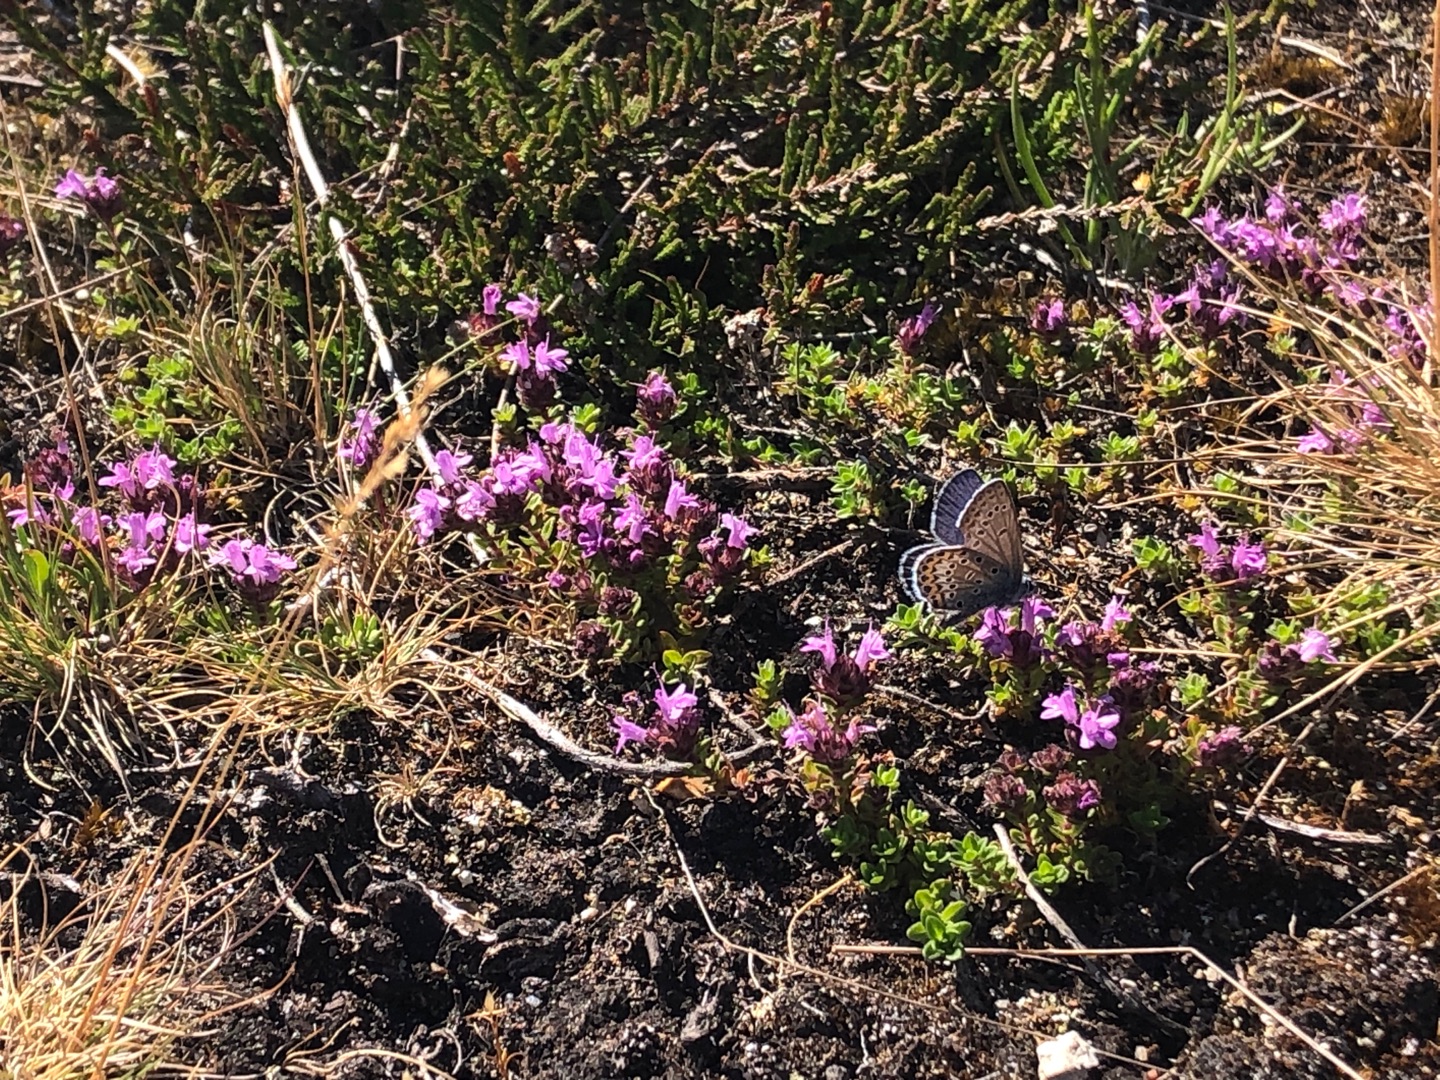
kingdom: Plantae
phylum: Tracheophyta
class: Magnoliopsida
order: Lamiales
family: Lamiaceae
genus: Thymus
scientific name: Thymus serpyllum
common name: Smalbladet timian
